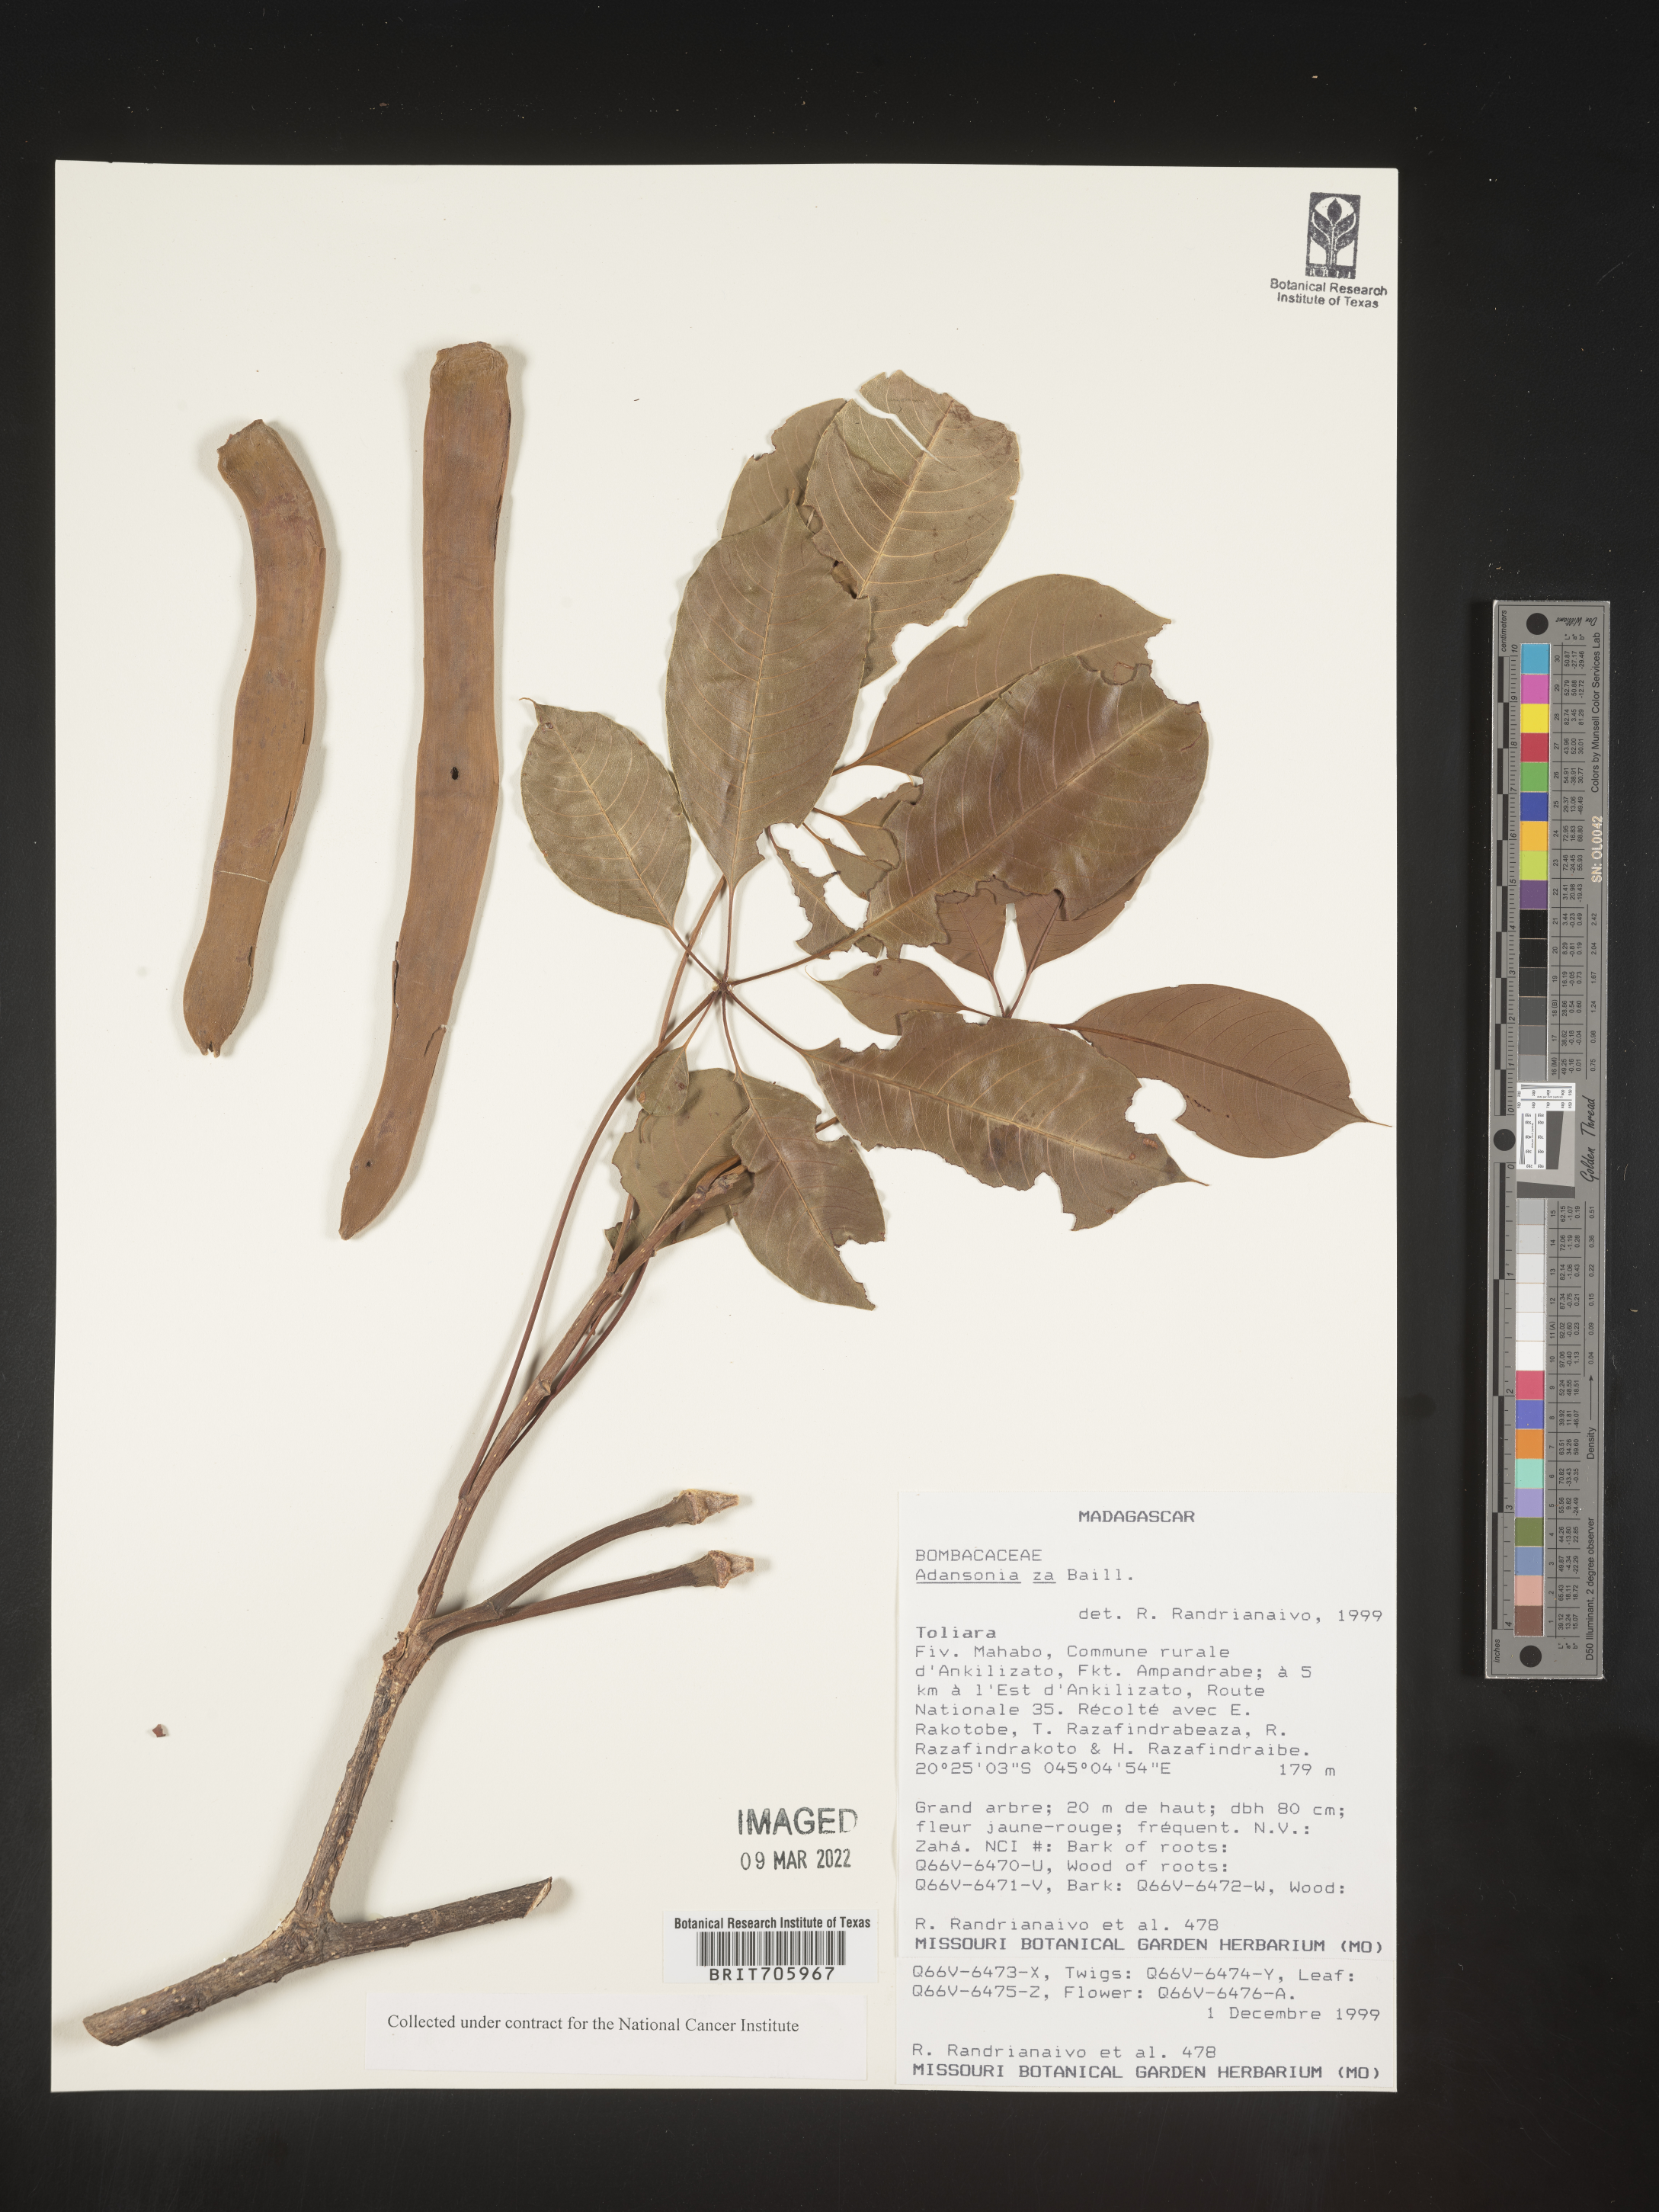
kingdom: Plantae
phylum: Tracheophyta
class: Magnoliopsida
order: Malvales
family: Malvaceae
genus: Adansonia
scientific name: Adansonia
